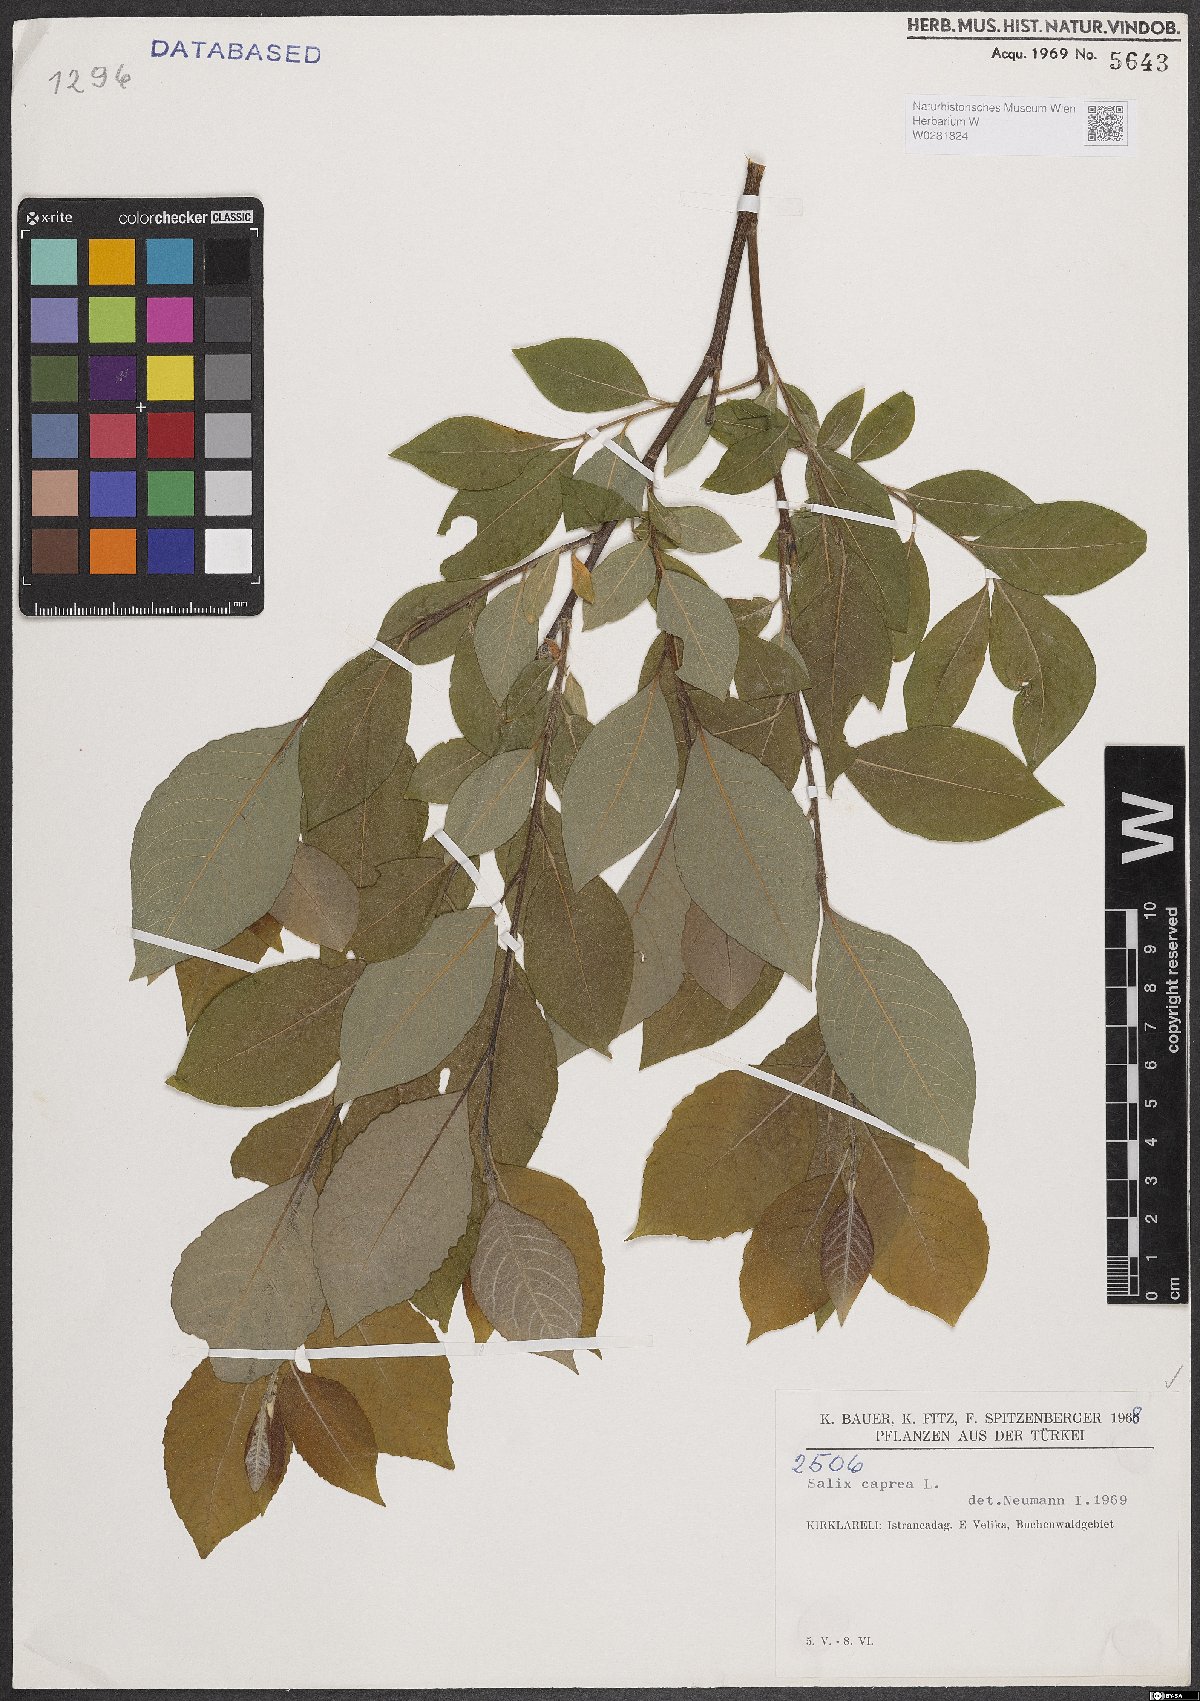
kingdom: Plantae
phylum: Tracheophyta
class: Magnoliopsida
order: Malpighiales
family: Salicaceae
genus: Salix
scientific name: Salix caprea
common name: Goat willow
